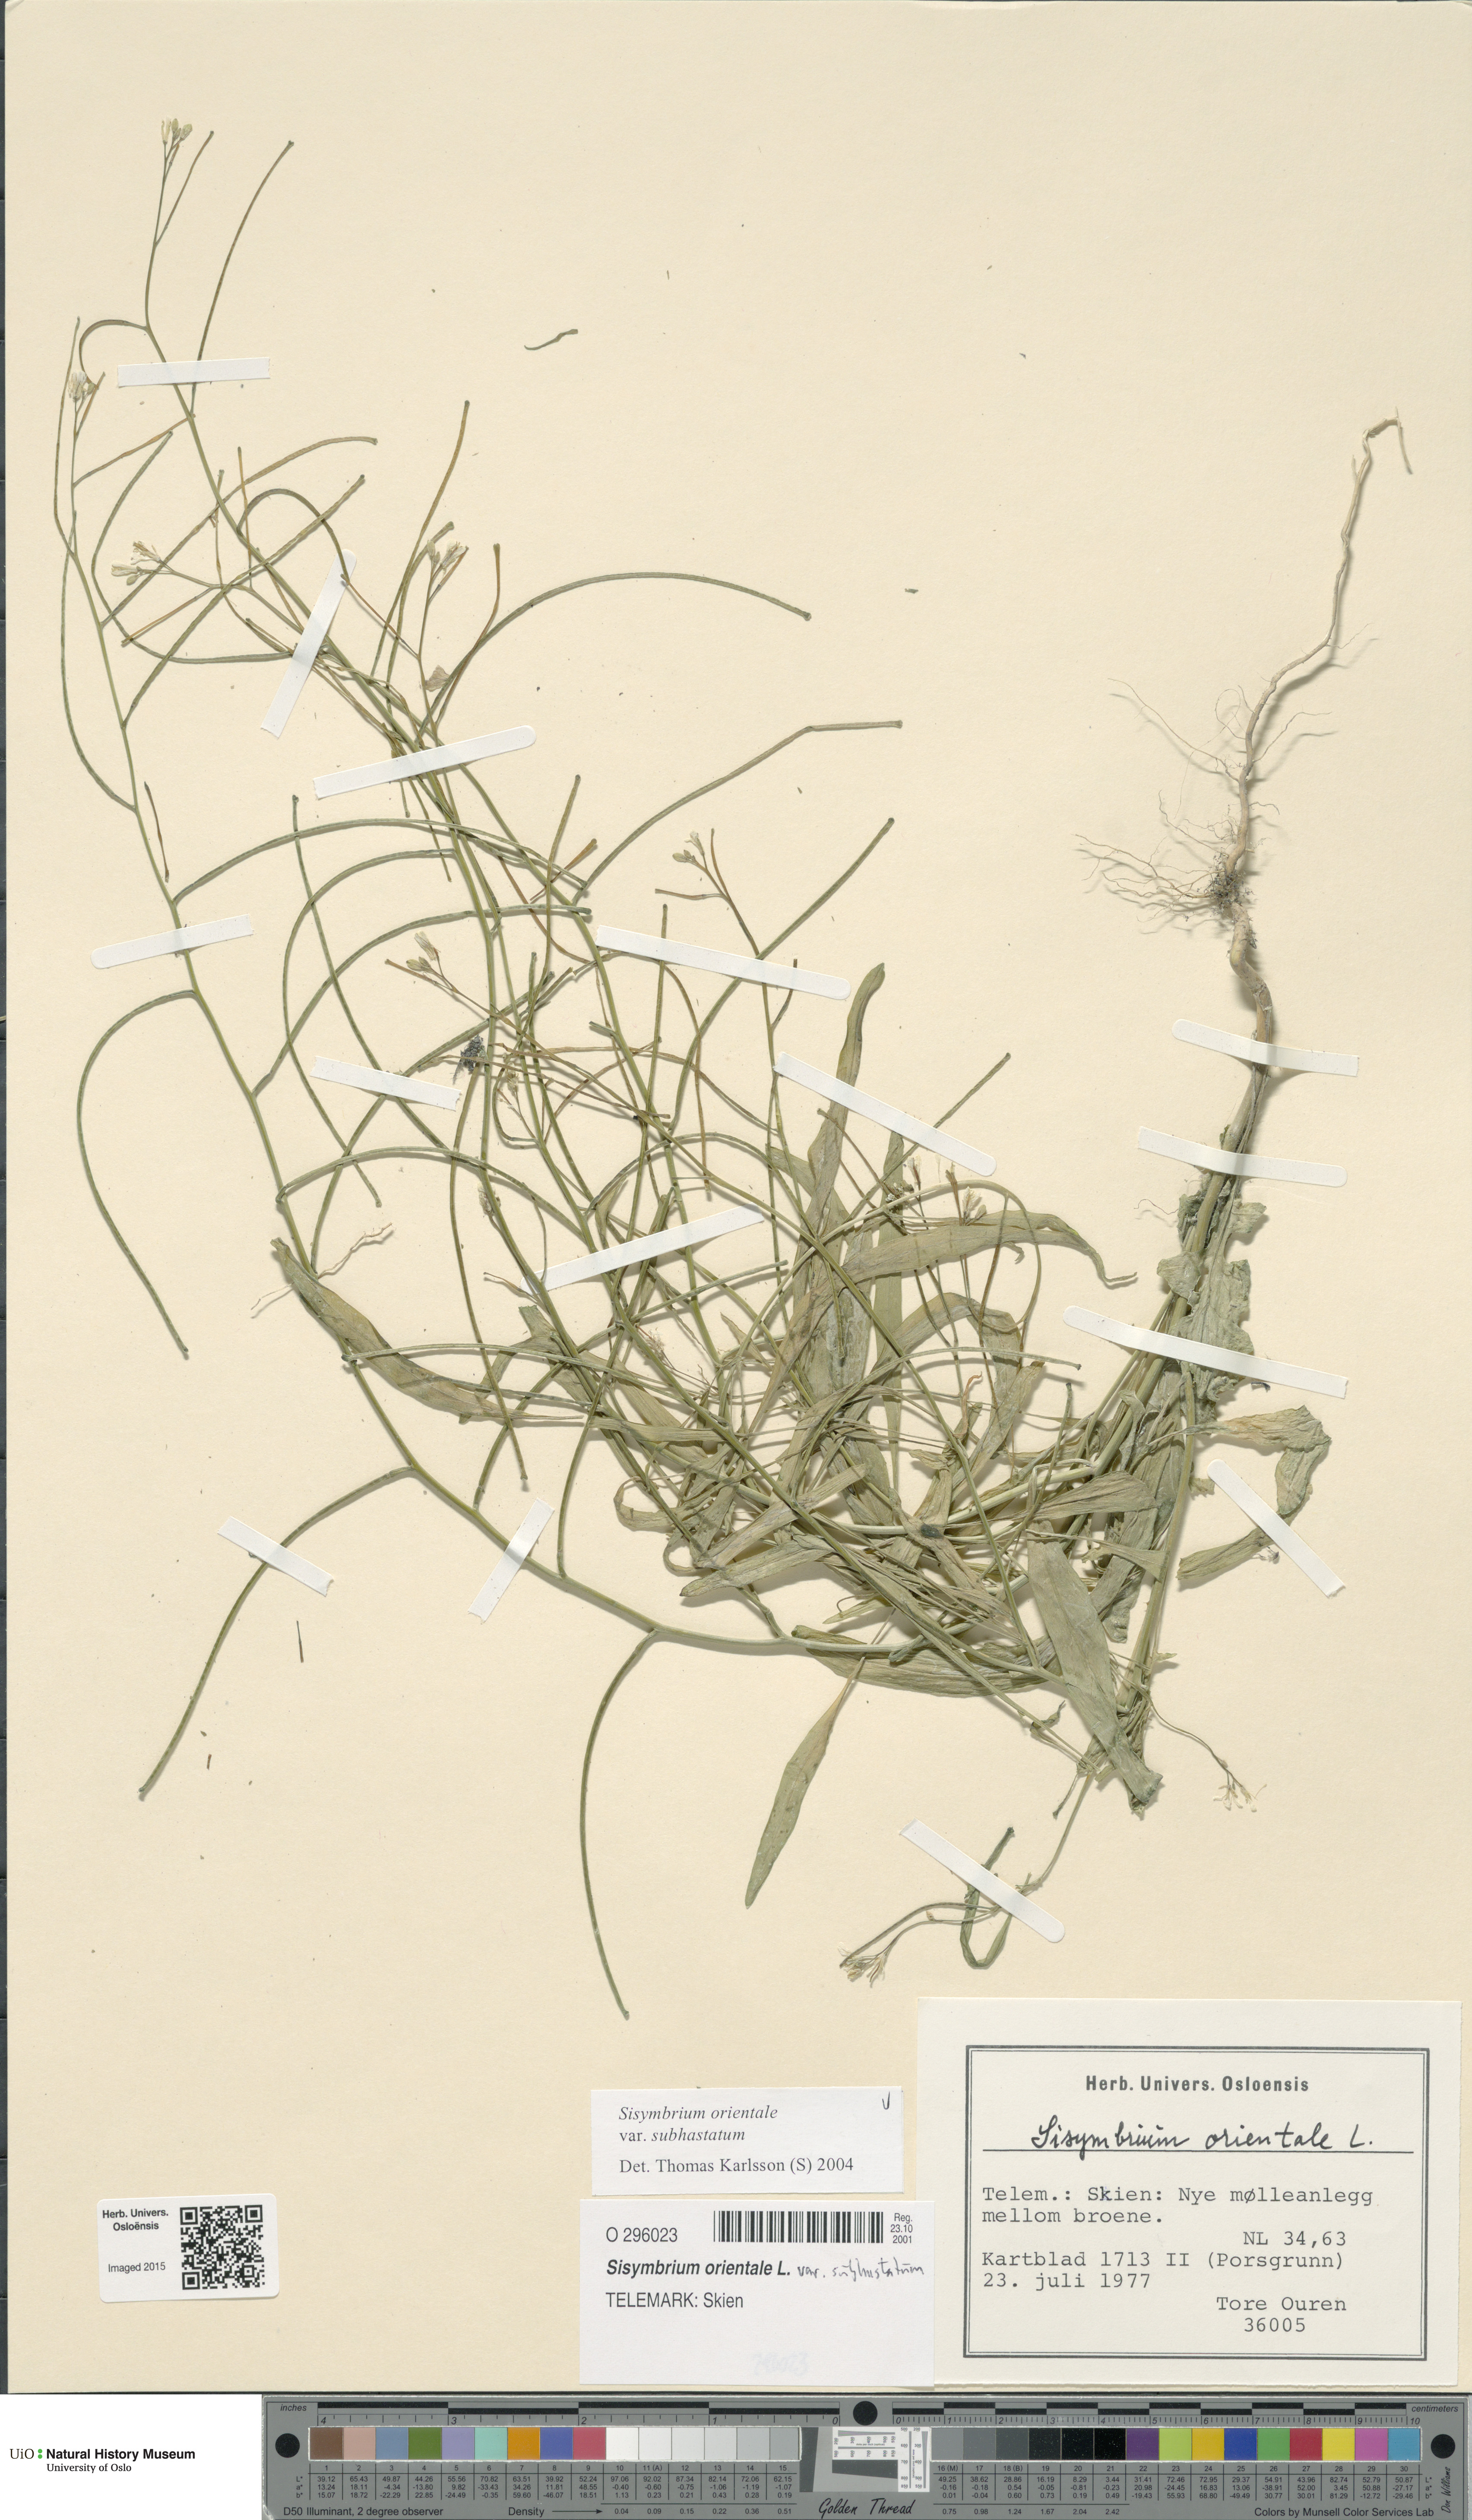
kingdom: Plantae
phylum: Tracheophyta
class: Magnoliopsida
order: Brassicales
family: Brassicaceae
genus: Sisymbrium
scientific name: Sisymbrium orientale
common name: Eastern rocket
